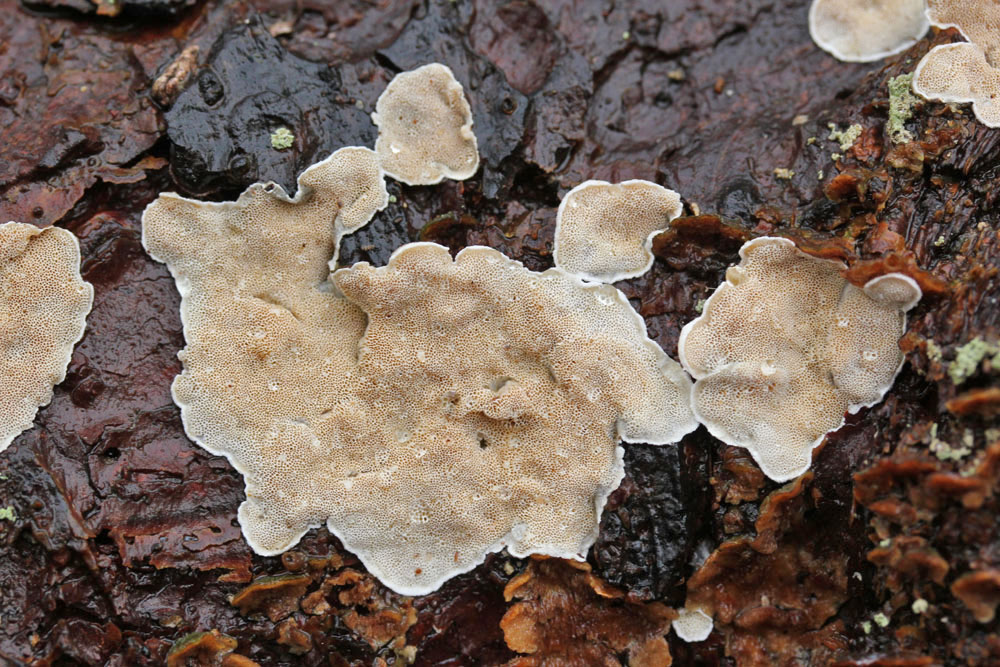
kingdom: Fungi
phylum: Basidiomycota
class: Agaricomycetes
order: Polyporales
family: Incrustoporiaceae
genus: Skeletocutis
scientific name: Skeletocutis carneogrisea
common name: rødgrå krystalporesvamp
